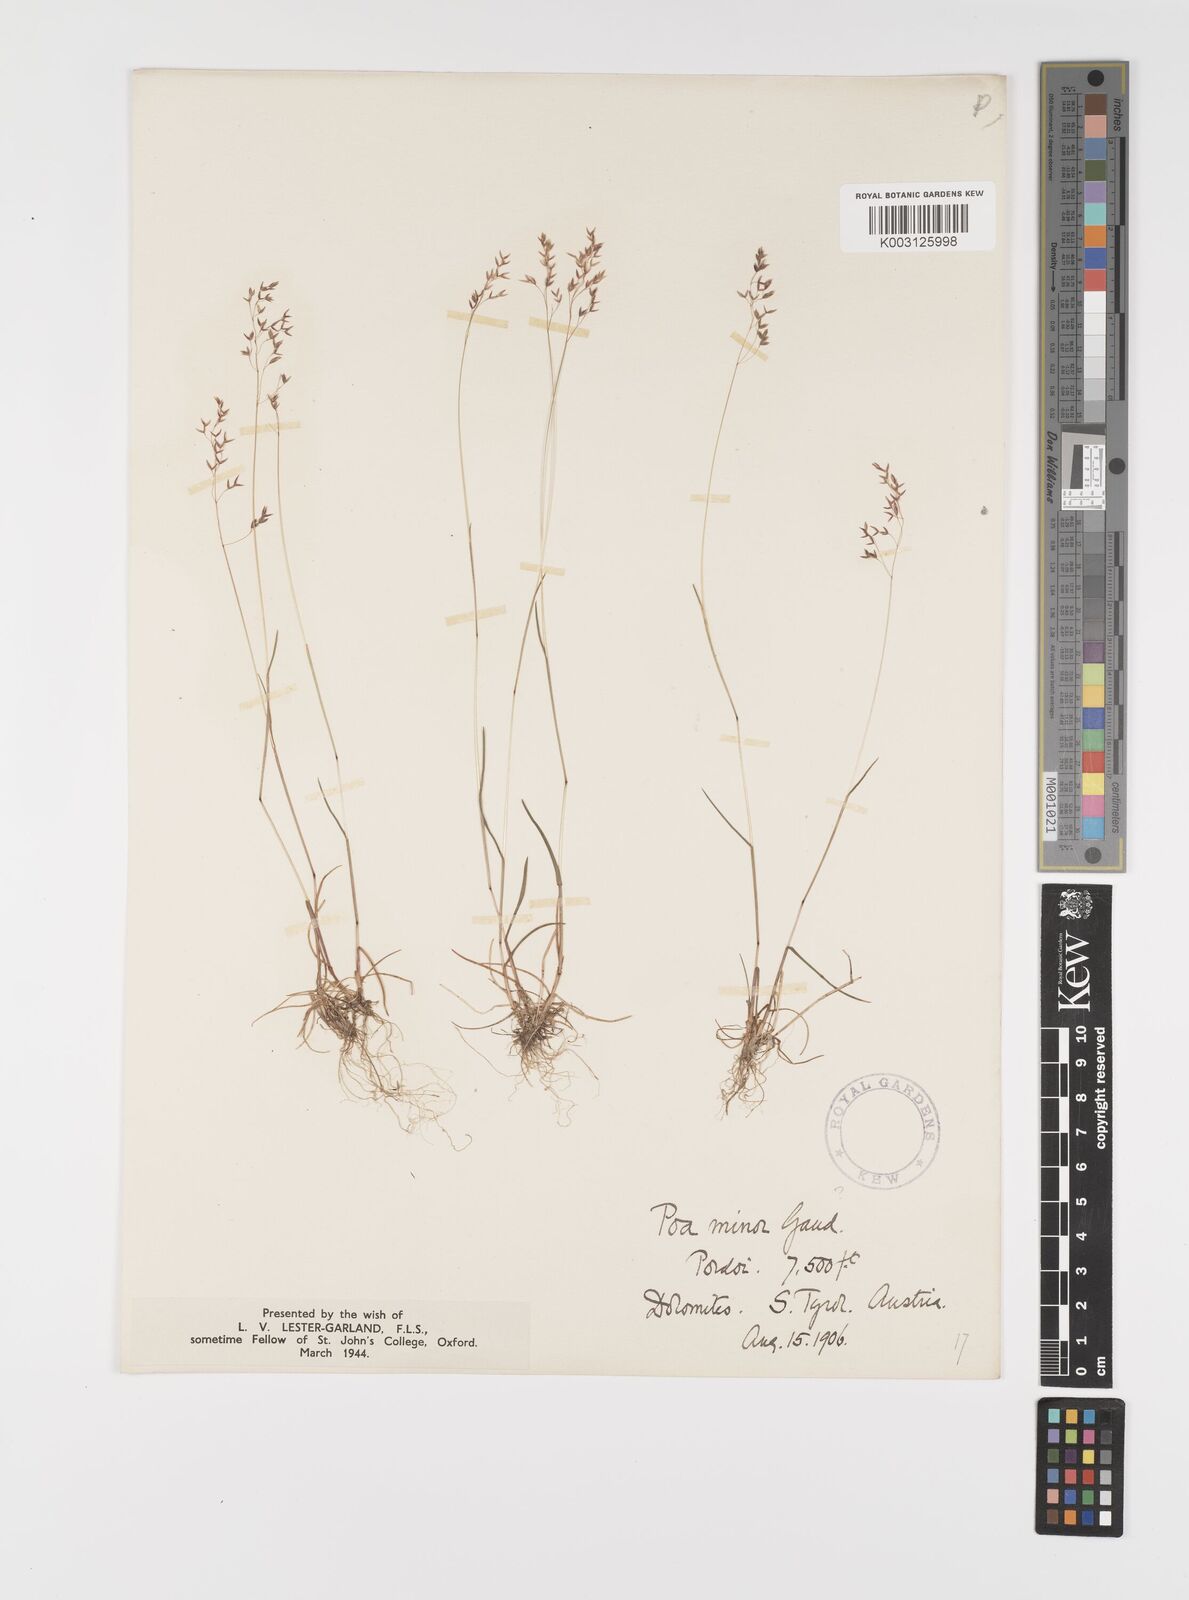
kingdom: Plantae
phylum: Tracheophyta
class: Liliopsida
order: Poales
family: Poaceae
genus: Poa
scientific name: Poa minor
